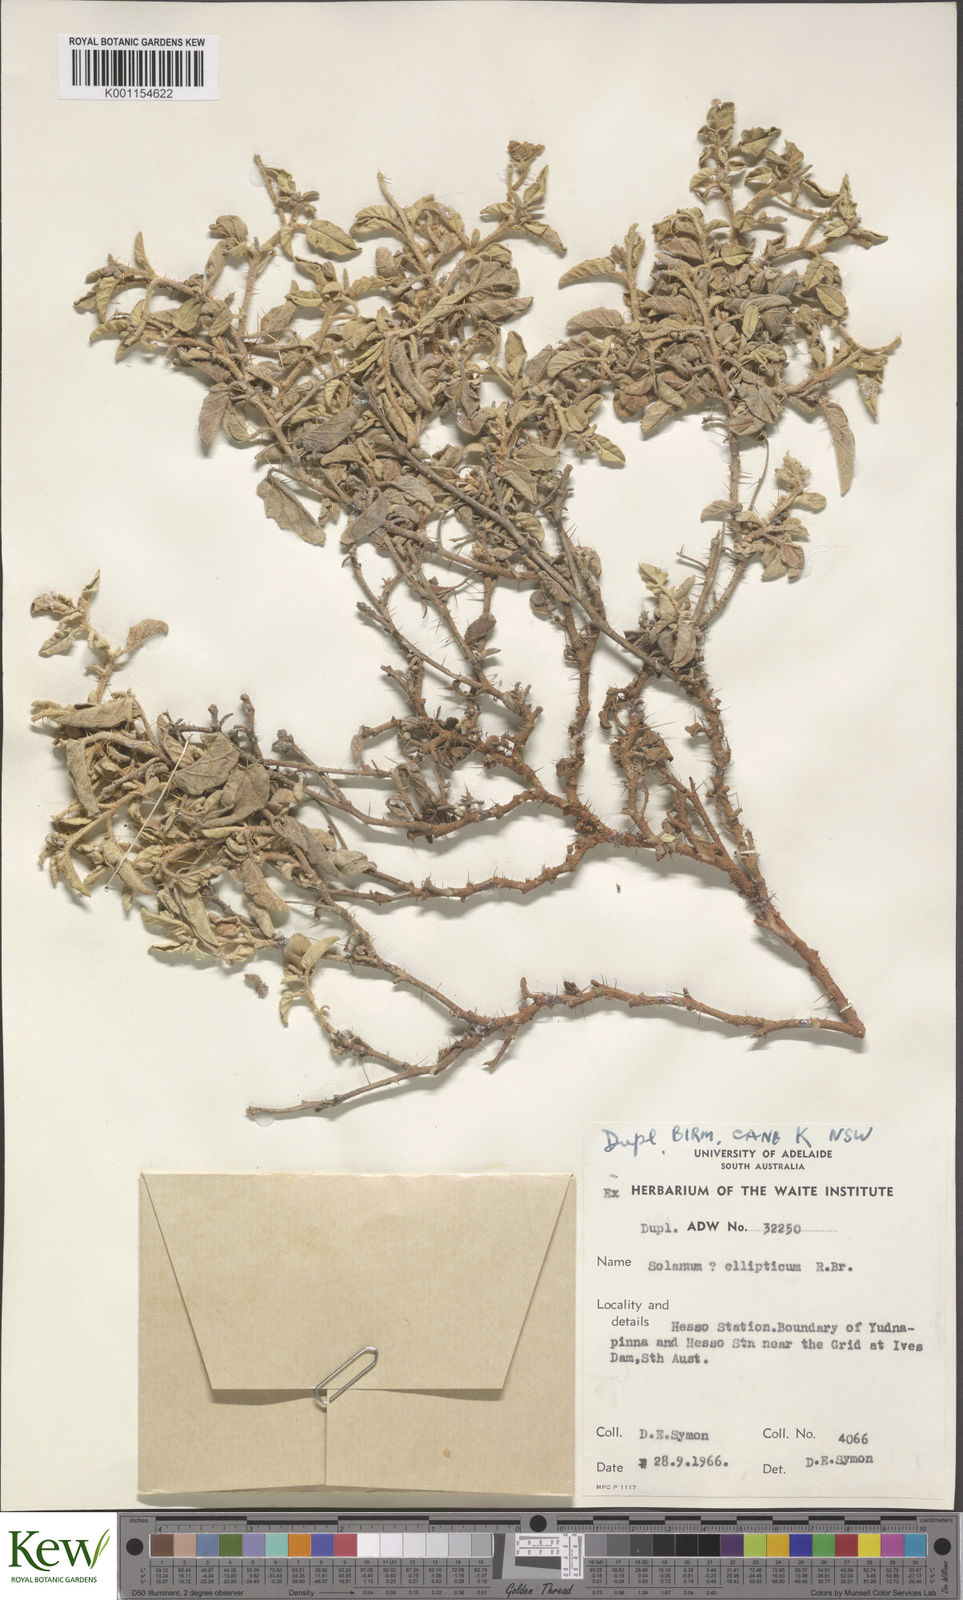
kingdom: Plantae
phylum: Tracheophyta
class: Magnoliopsida
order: Solanales
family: Solanaceae
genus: Solanum
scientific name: Solanum ellipticum
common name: Potato-bush
